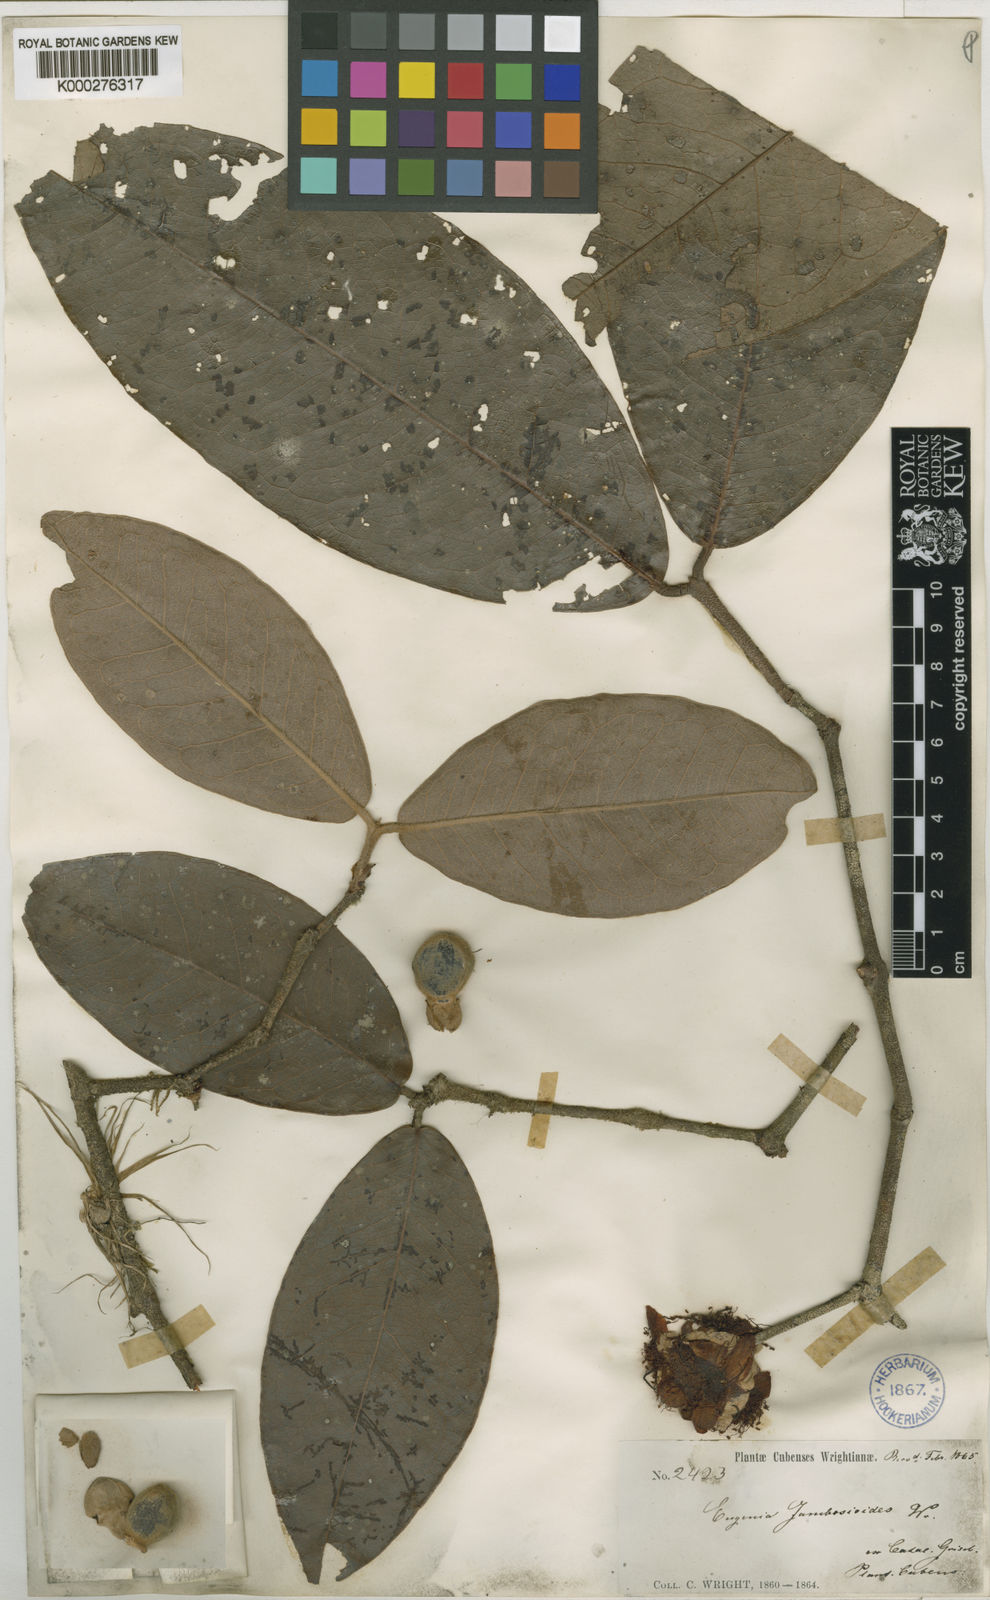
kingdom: Plantae
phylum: Tracheophyta
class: Magnoliopsida
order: Myrtales
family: Myrtaceae
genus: Eugenia
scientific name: Eugenia
